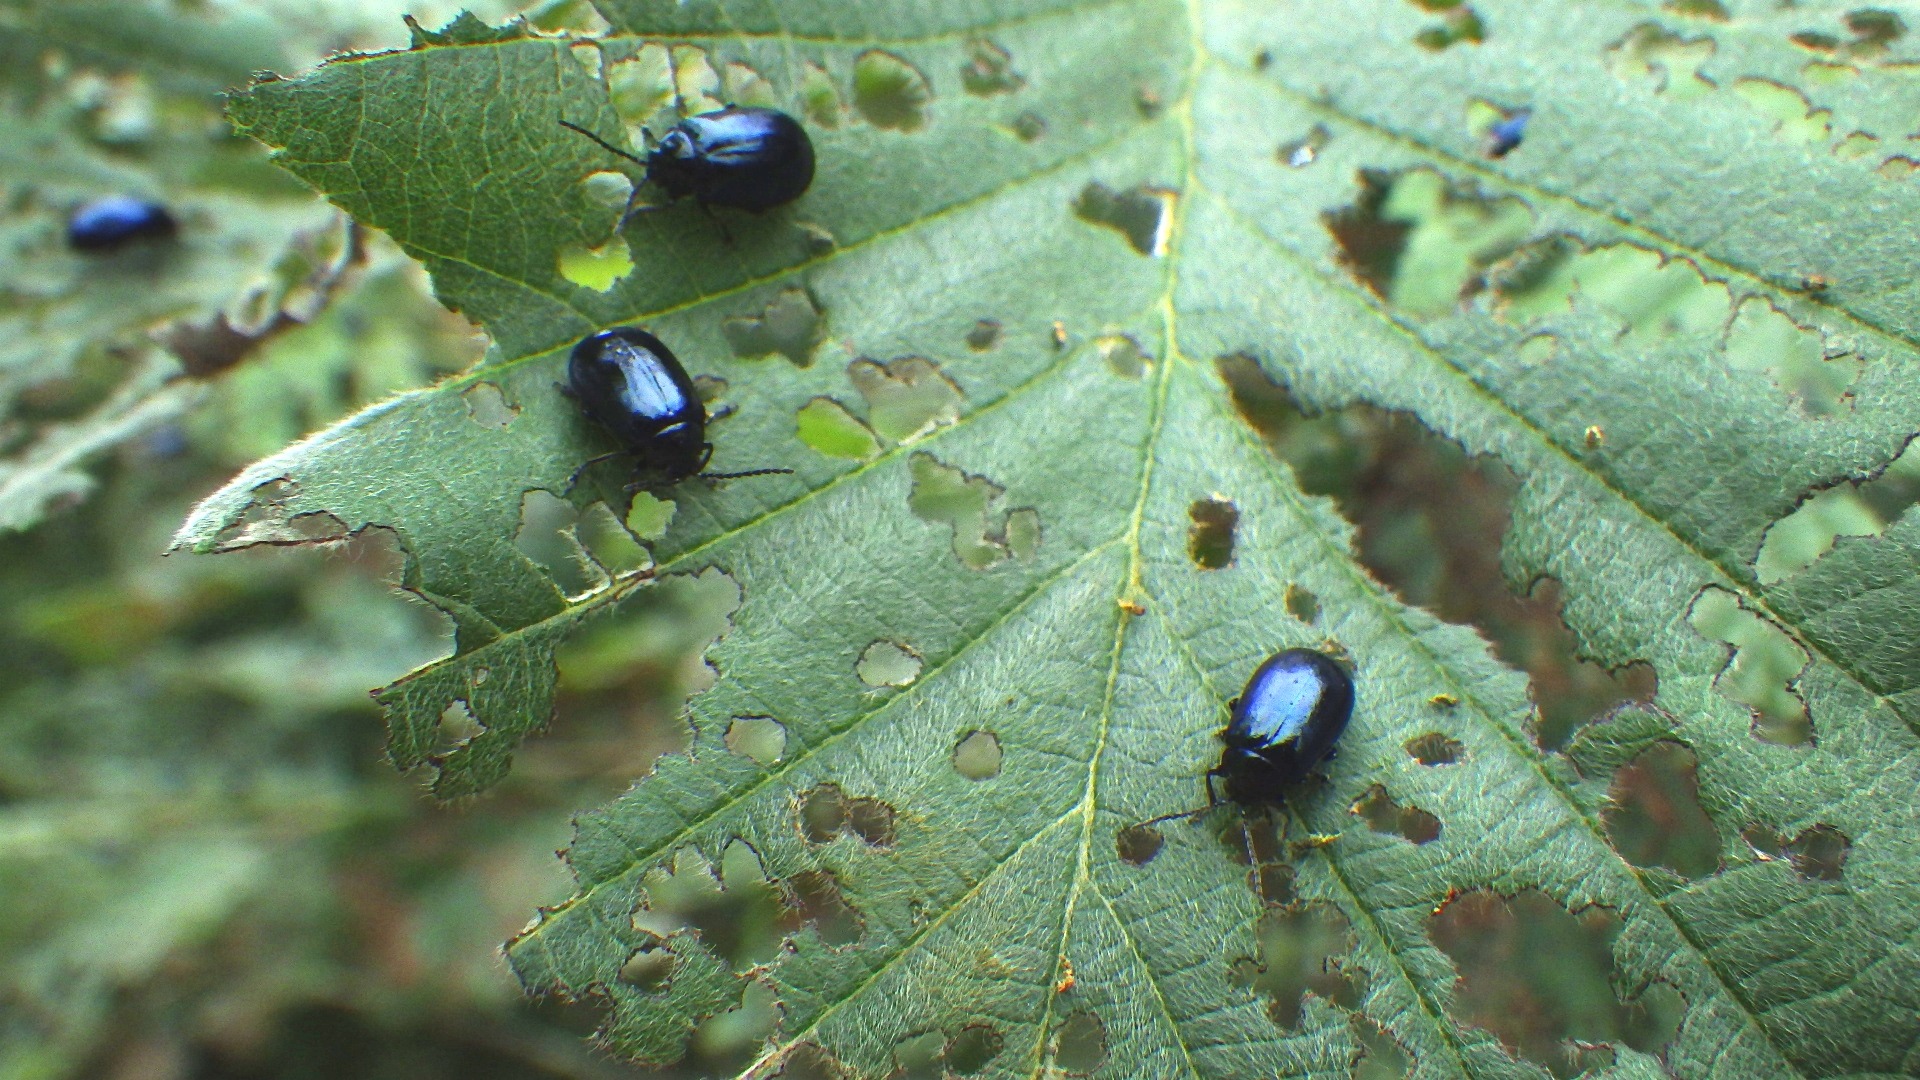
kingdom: Animalia
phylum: Arthropoda
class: Insecta
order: Coleoptera
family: Chrysomelidae
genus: Agelastica
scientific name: Agelastica alni
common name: Ellebladbille
